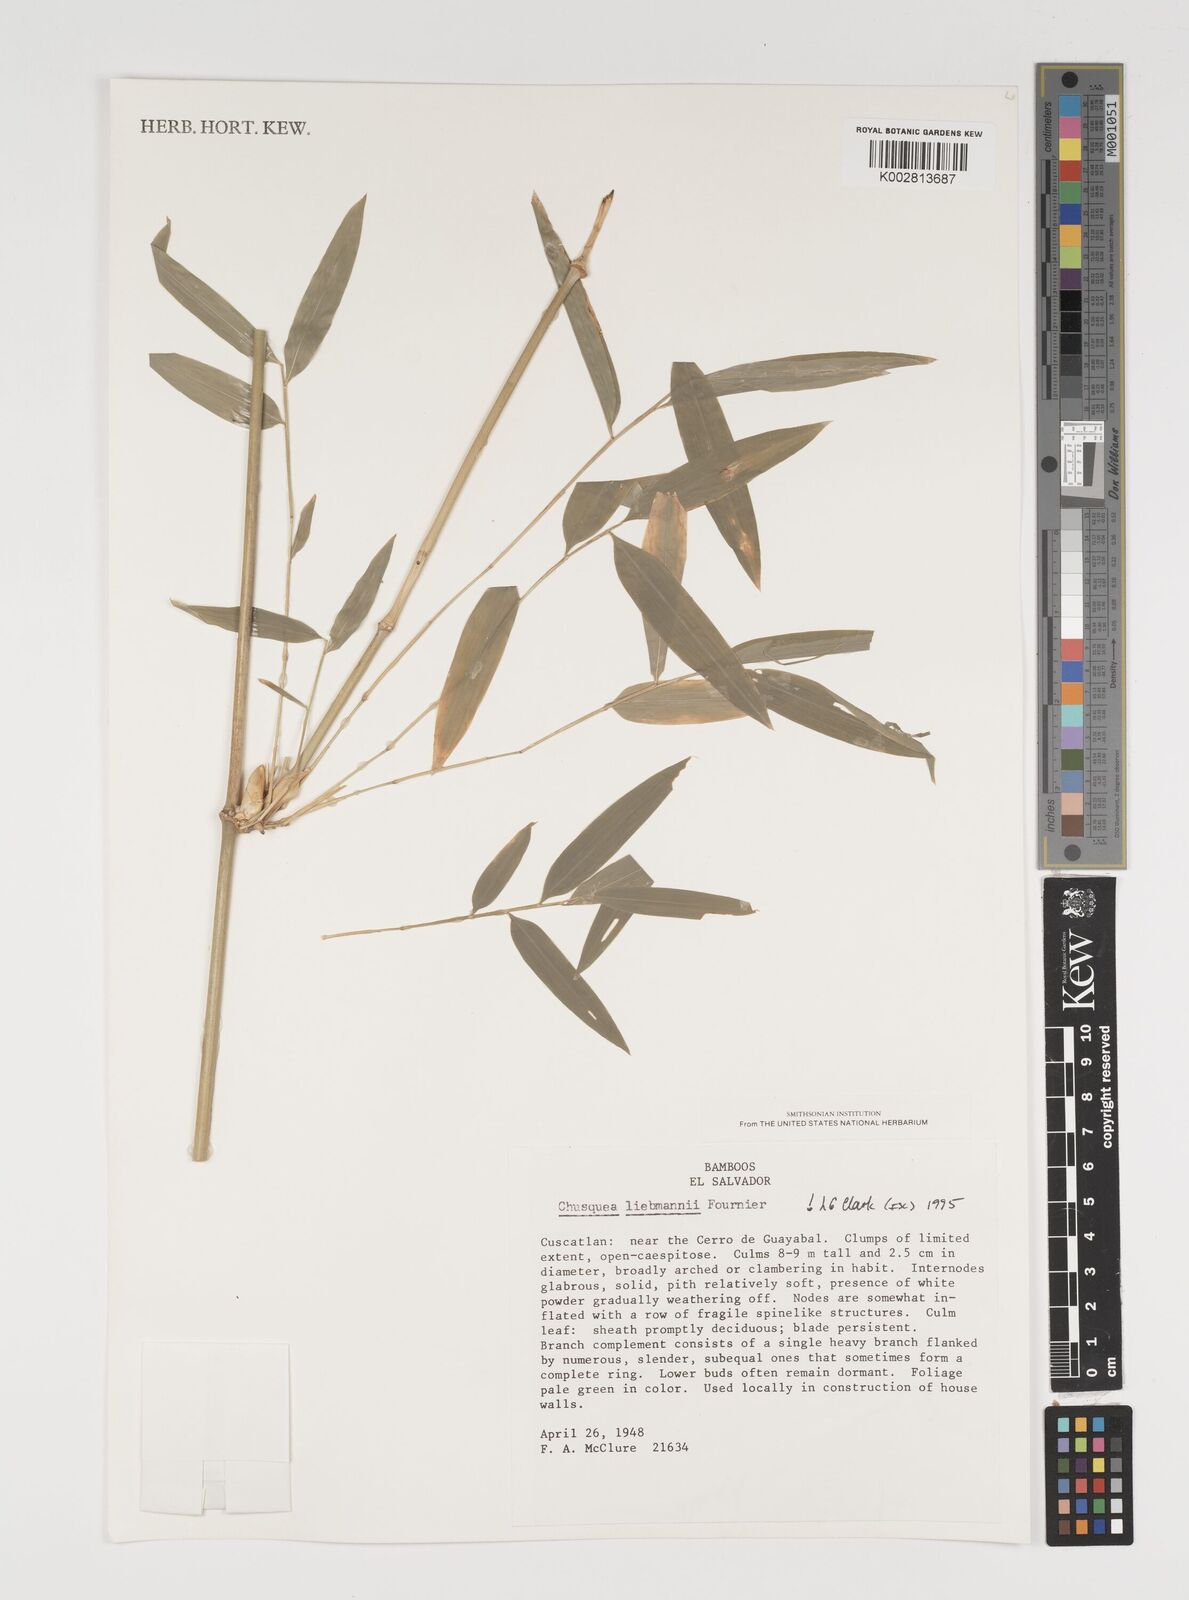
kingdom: Plantae
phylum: Tracheophyta
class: Liliopsida
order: Poales
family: Poaceae
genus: Chusquea
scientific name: Chusquea liebmannii
